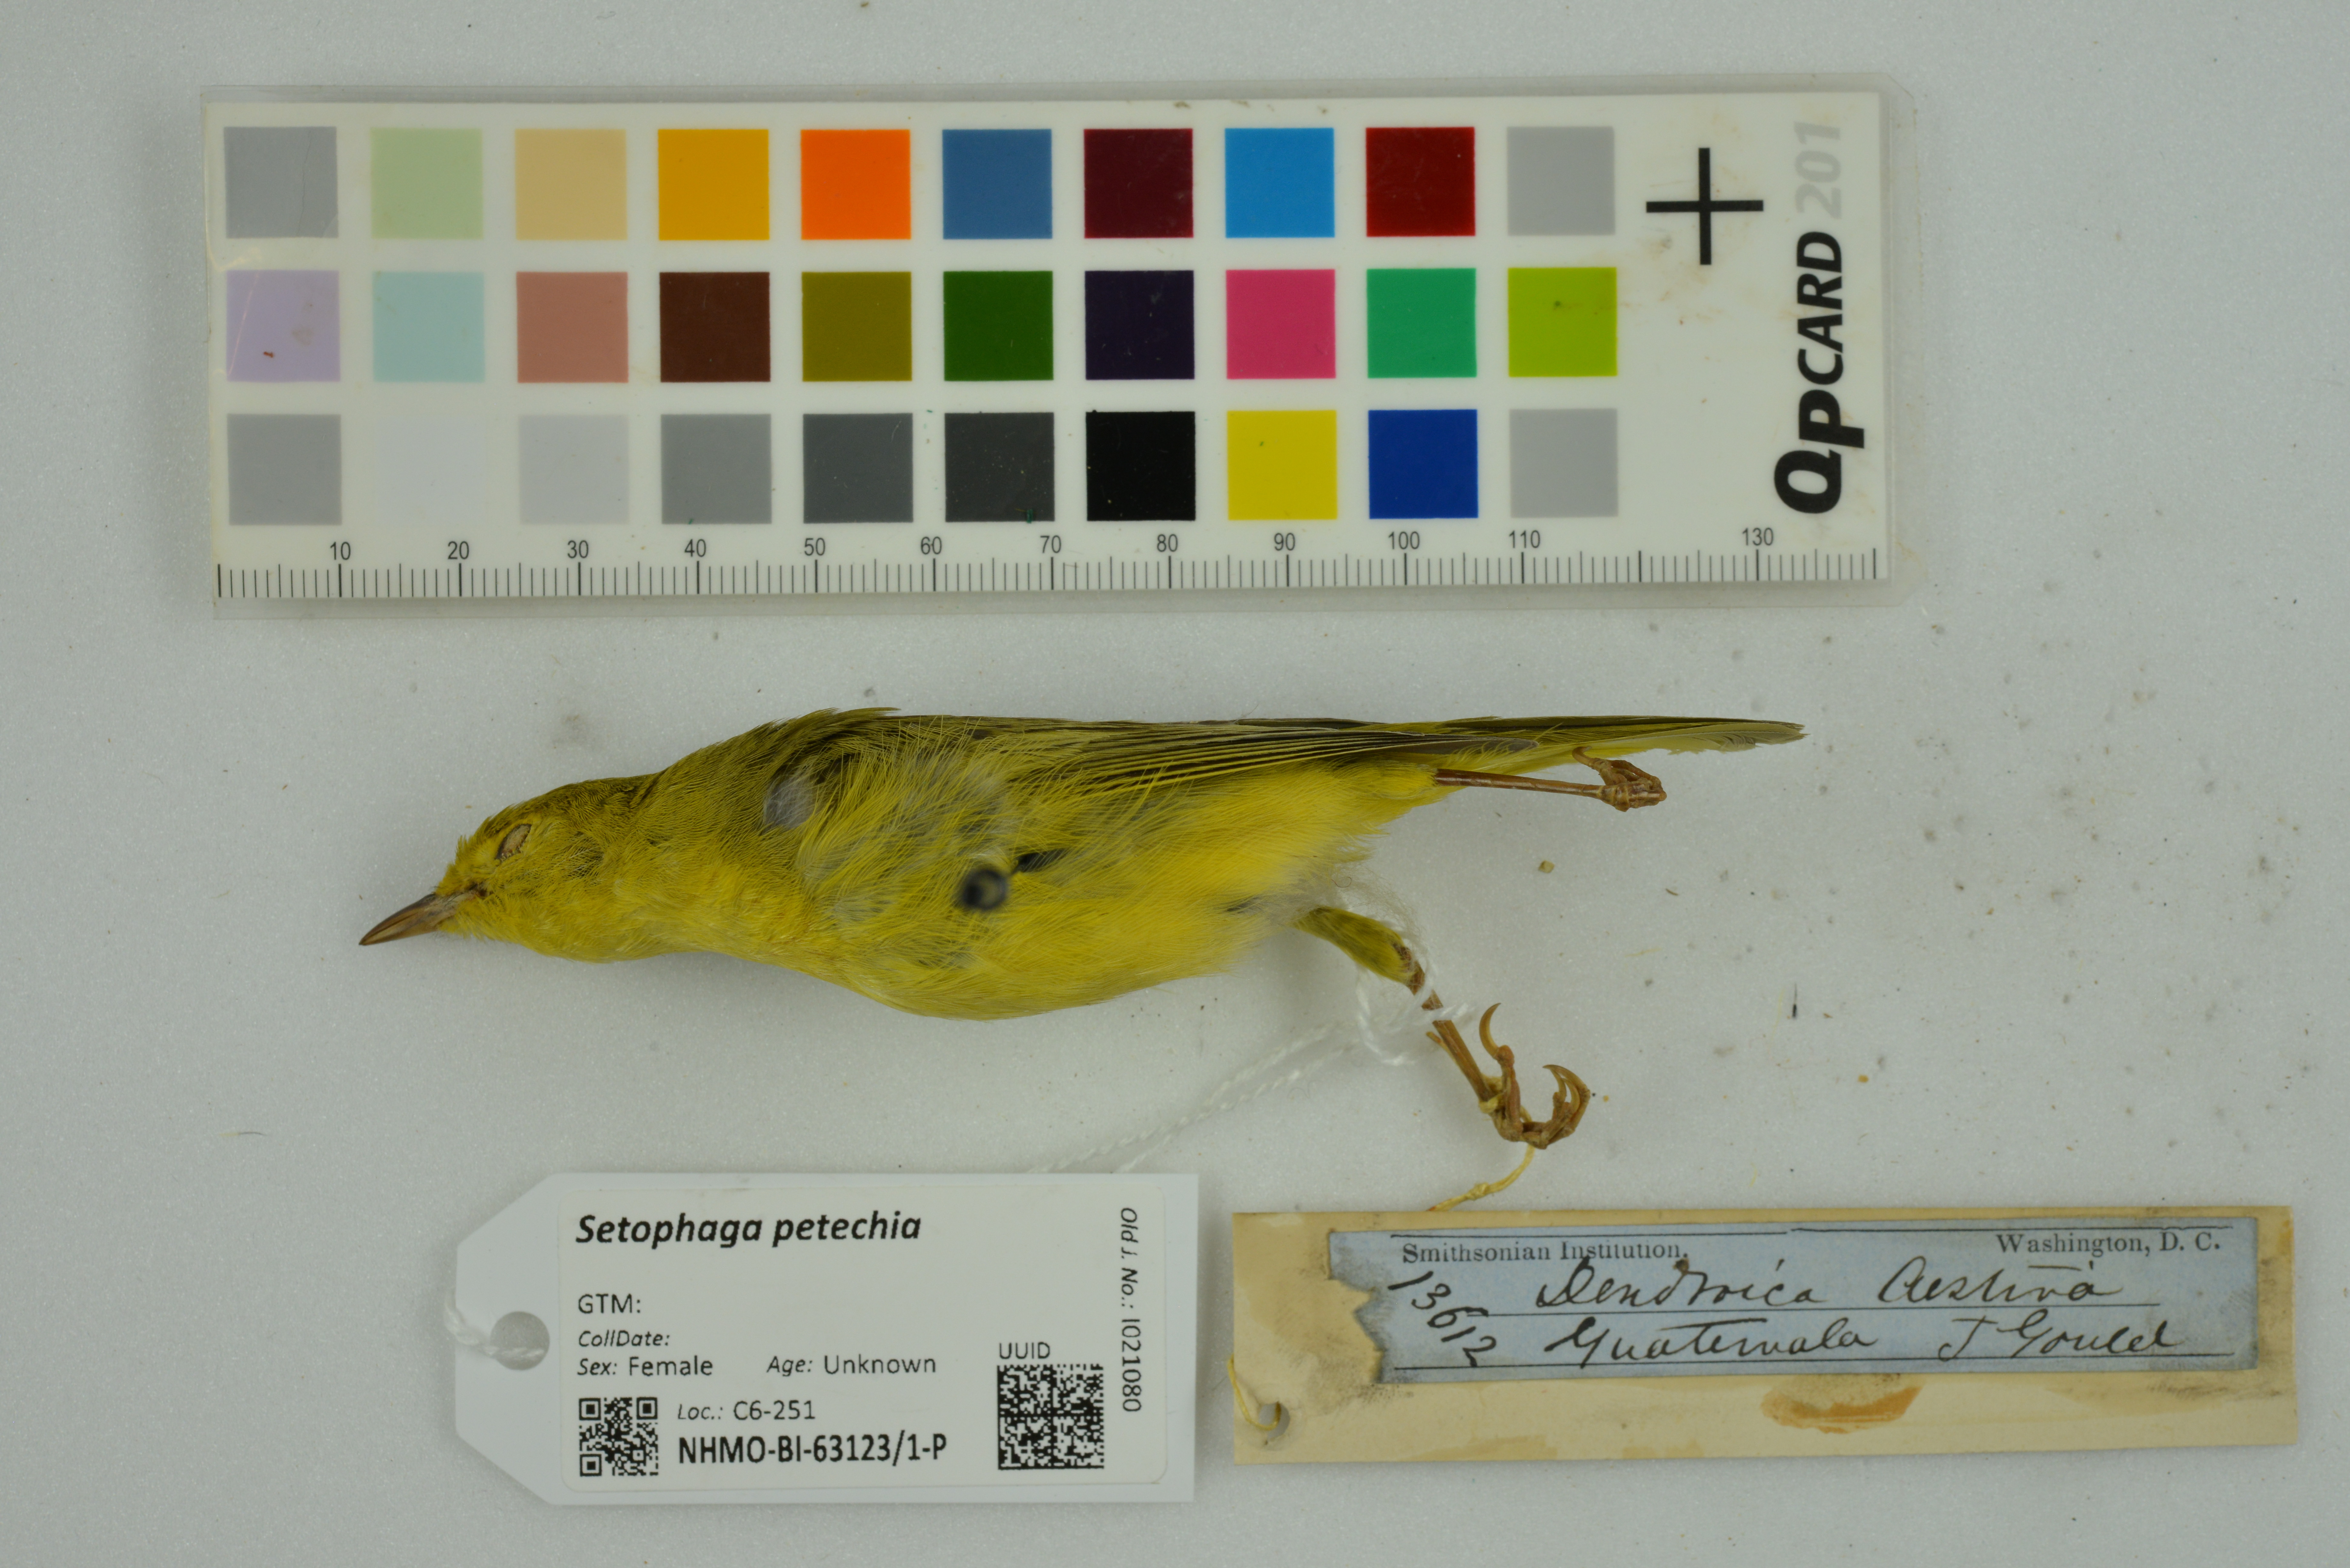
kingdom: Animalia
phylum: Chordata
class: Aves
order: Passeriformes
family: Parulidae
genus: Setophaga
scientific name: Setophaga petechia
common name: Yellow warbler
